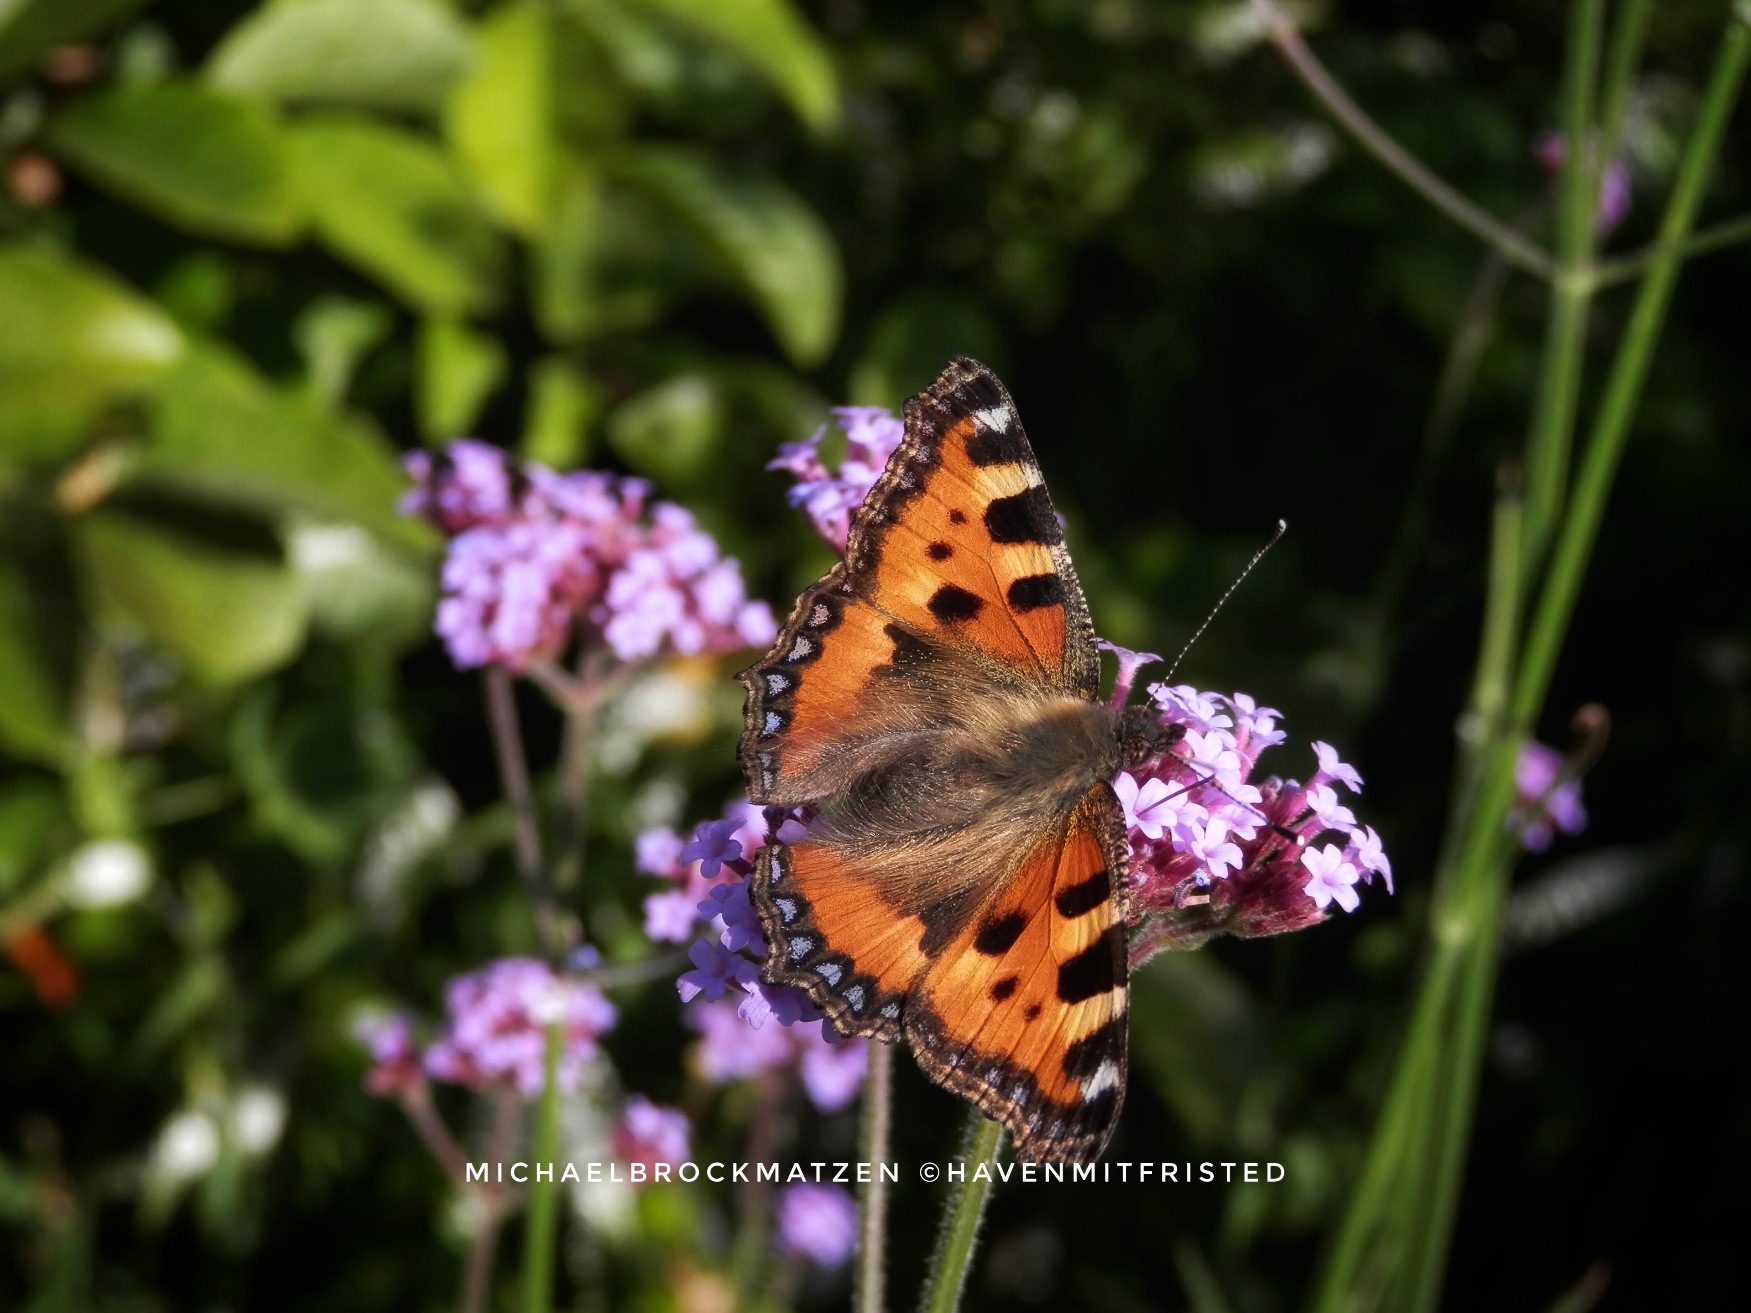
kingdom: Animalia
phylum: Arthropoda
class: Insecta
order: Lepidoptera
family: Nymphalidae
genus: Aglais
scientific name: Aglais urticae
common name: Nældens takvinge
